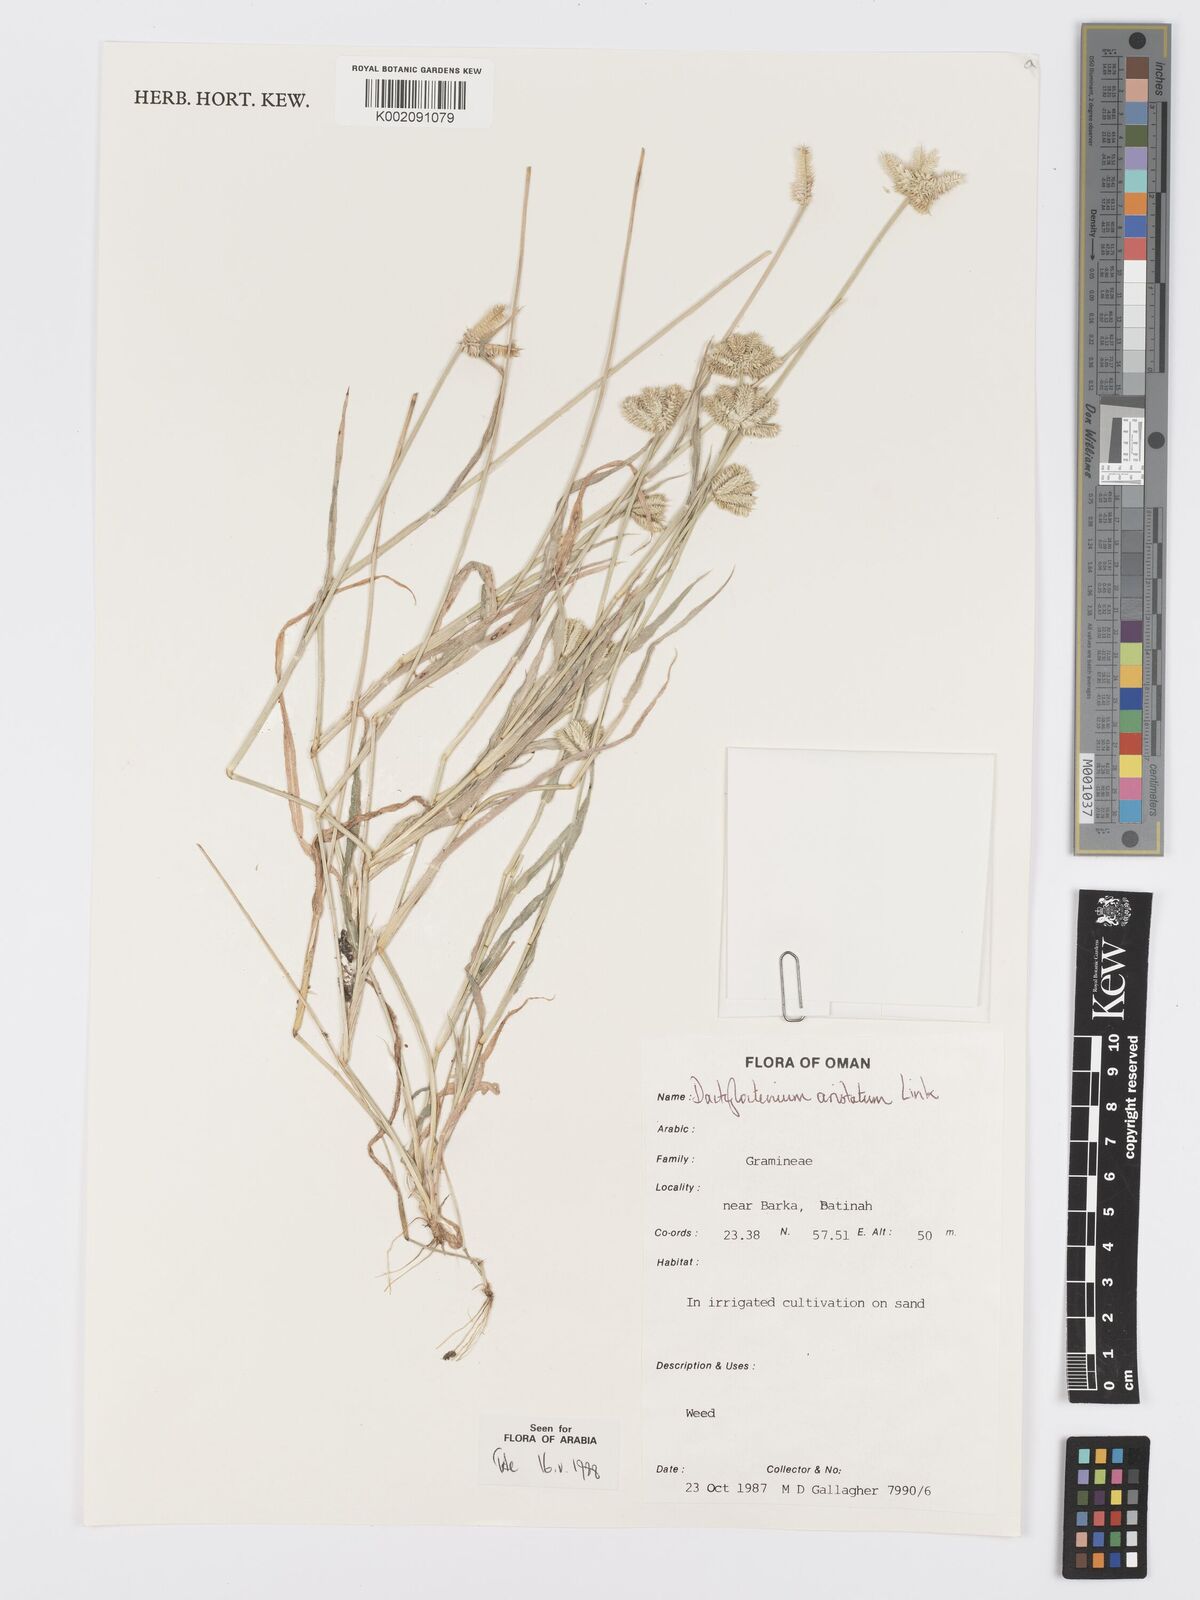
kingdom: Plantae
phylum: Tracheophyta
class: Liliopsida
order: Poales
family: Poaceae
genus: Dactyloctenium
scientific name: Dactyloctenium aristatum
